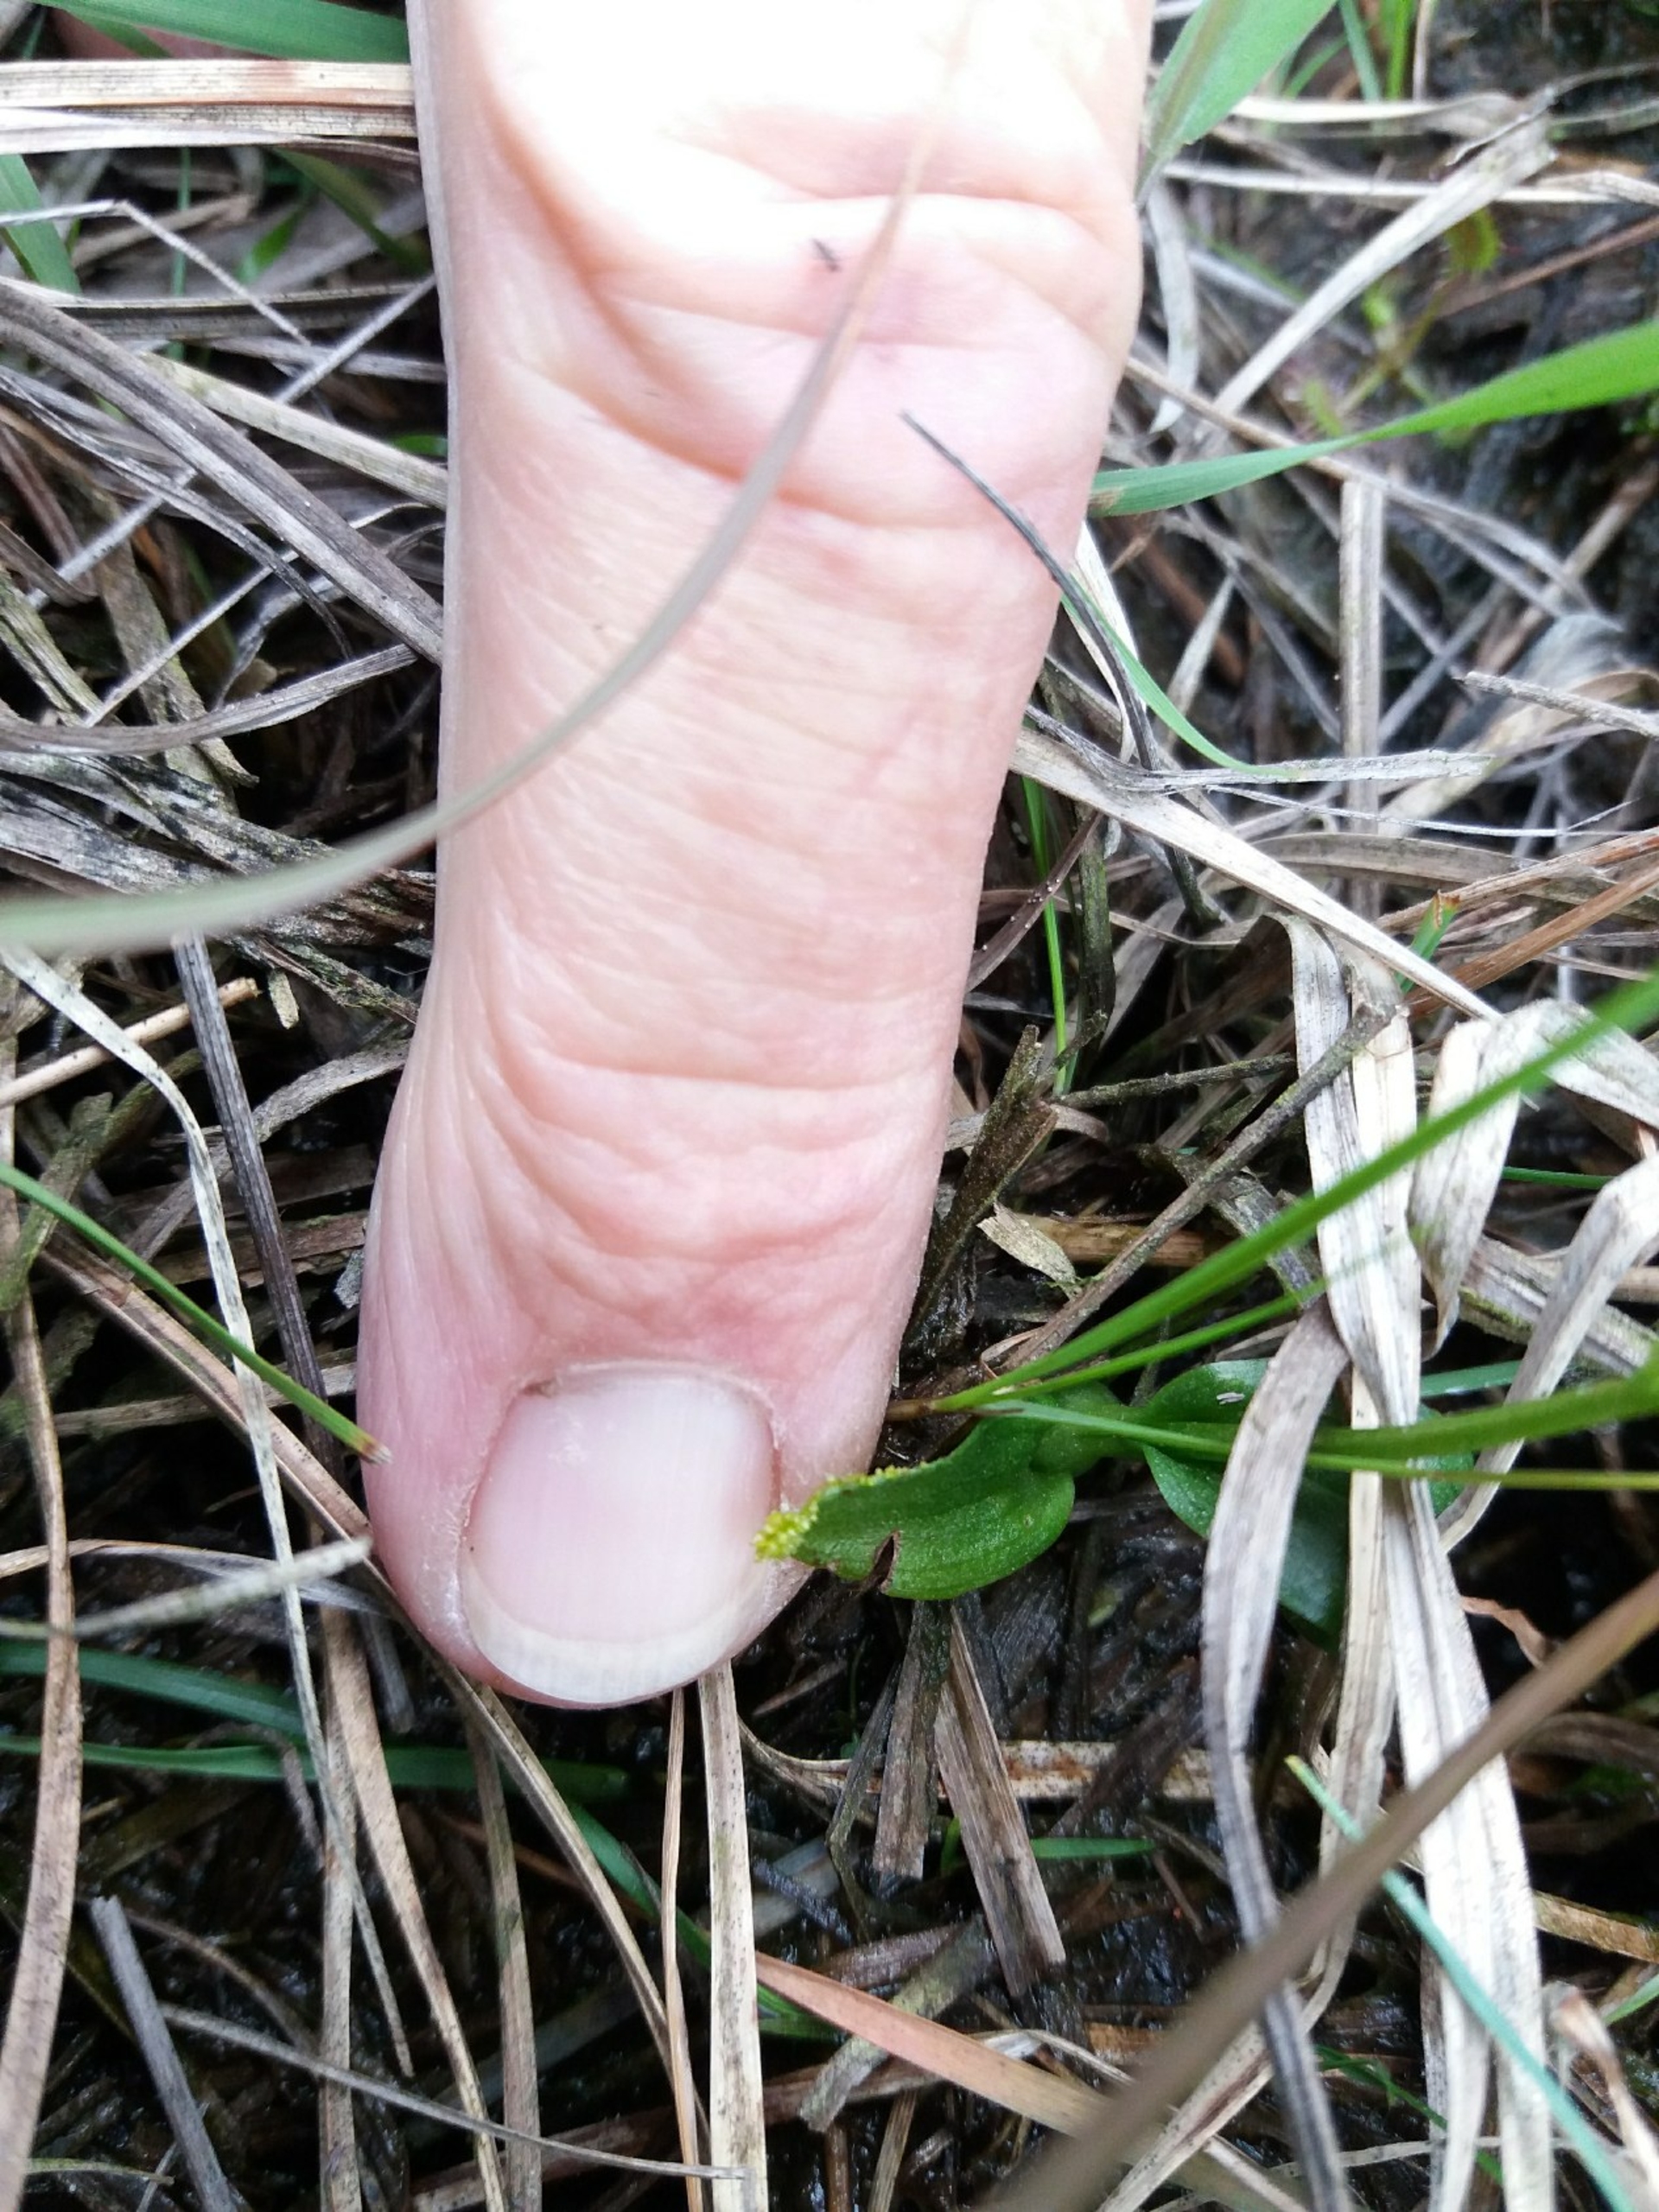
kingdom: Plantae
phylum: Tracheophyta
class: Liliopsida
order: Asparagales
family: Orchidaceae
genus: Hammarbya
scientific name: Hammarbya paludosa
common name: Hjertelæbe
